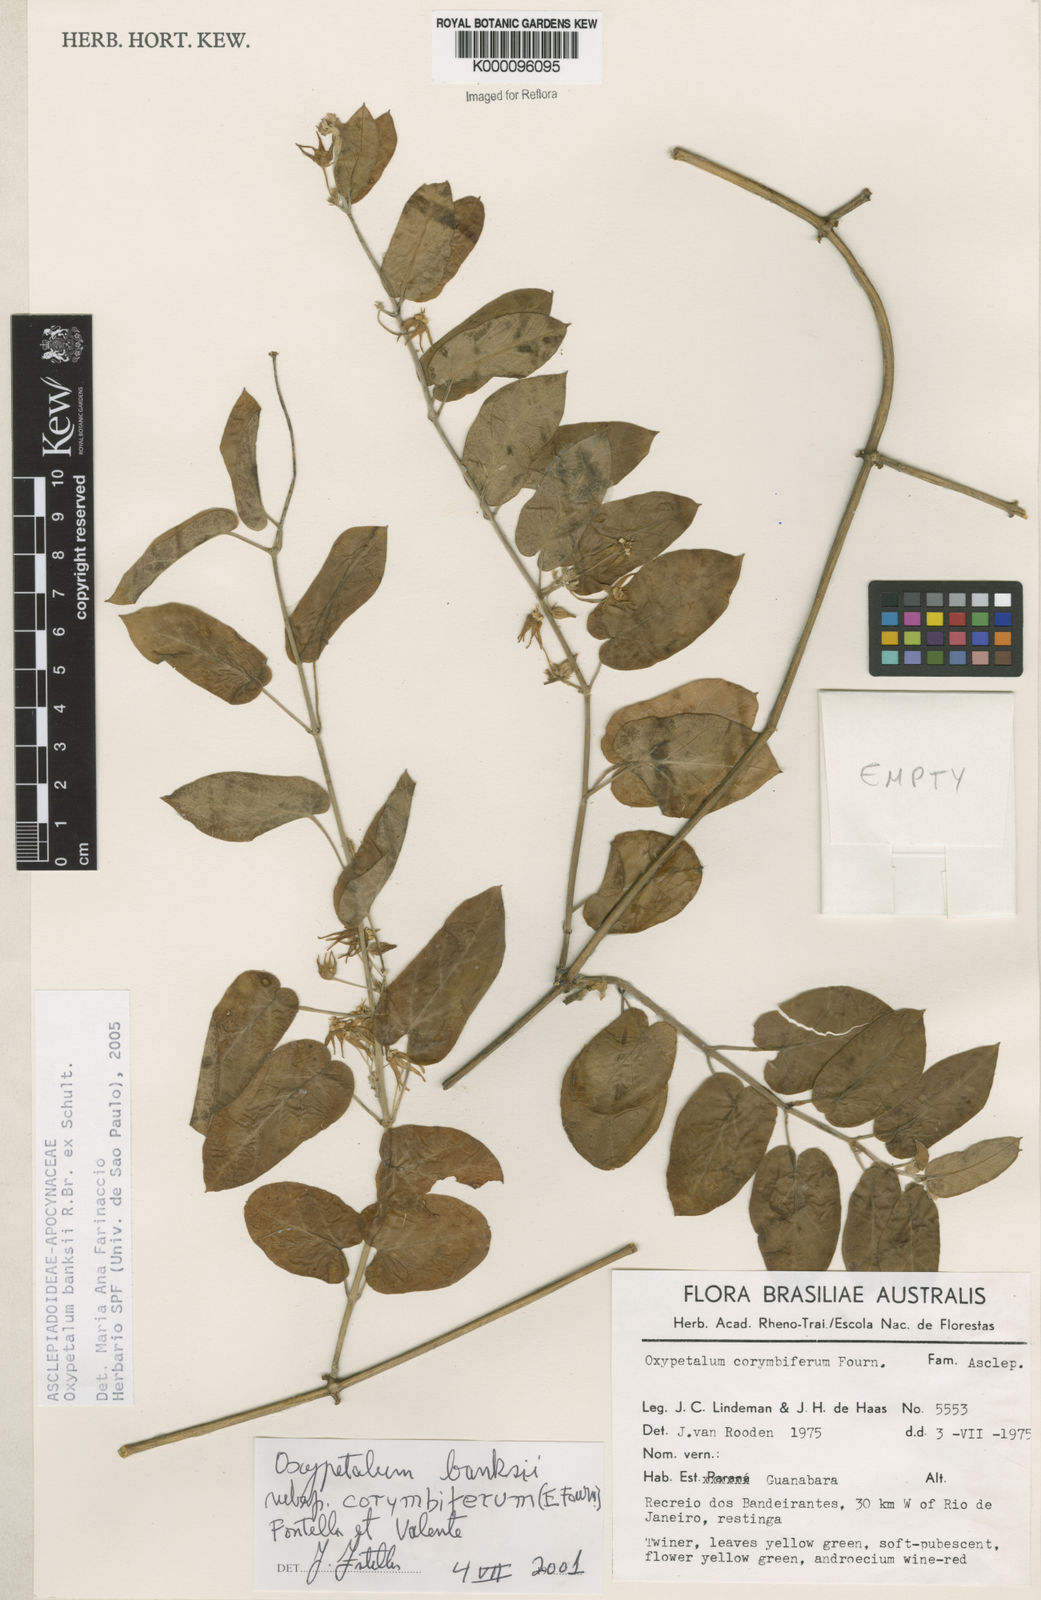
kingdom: Plantae
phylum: Tracheophyta
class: Magnoliopsida
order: Gentianales
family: Apocynaceae
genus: Oxypetalum
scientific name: Oxypetalum banksii
